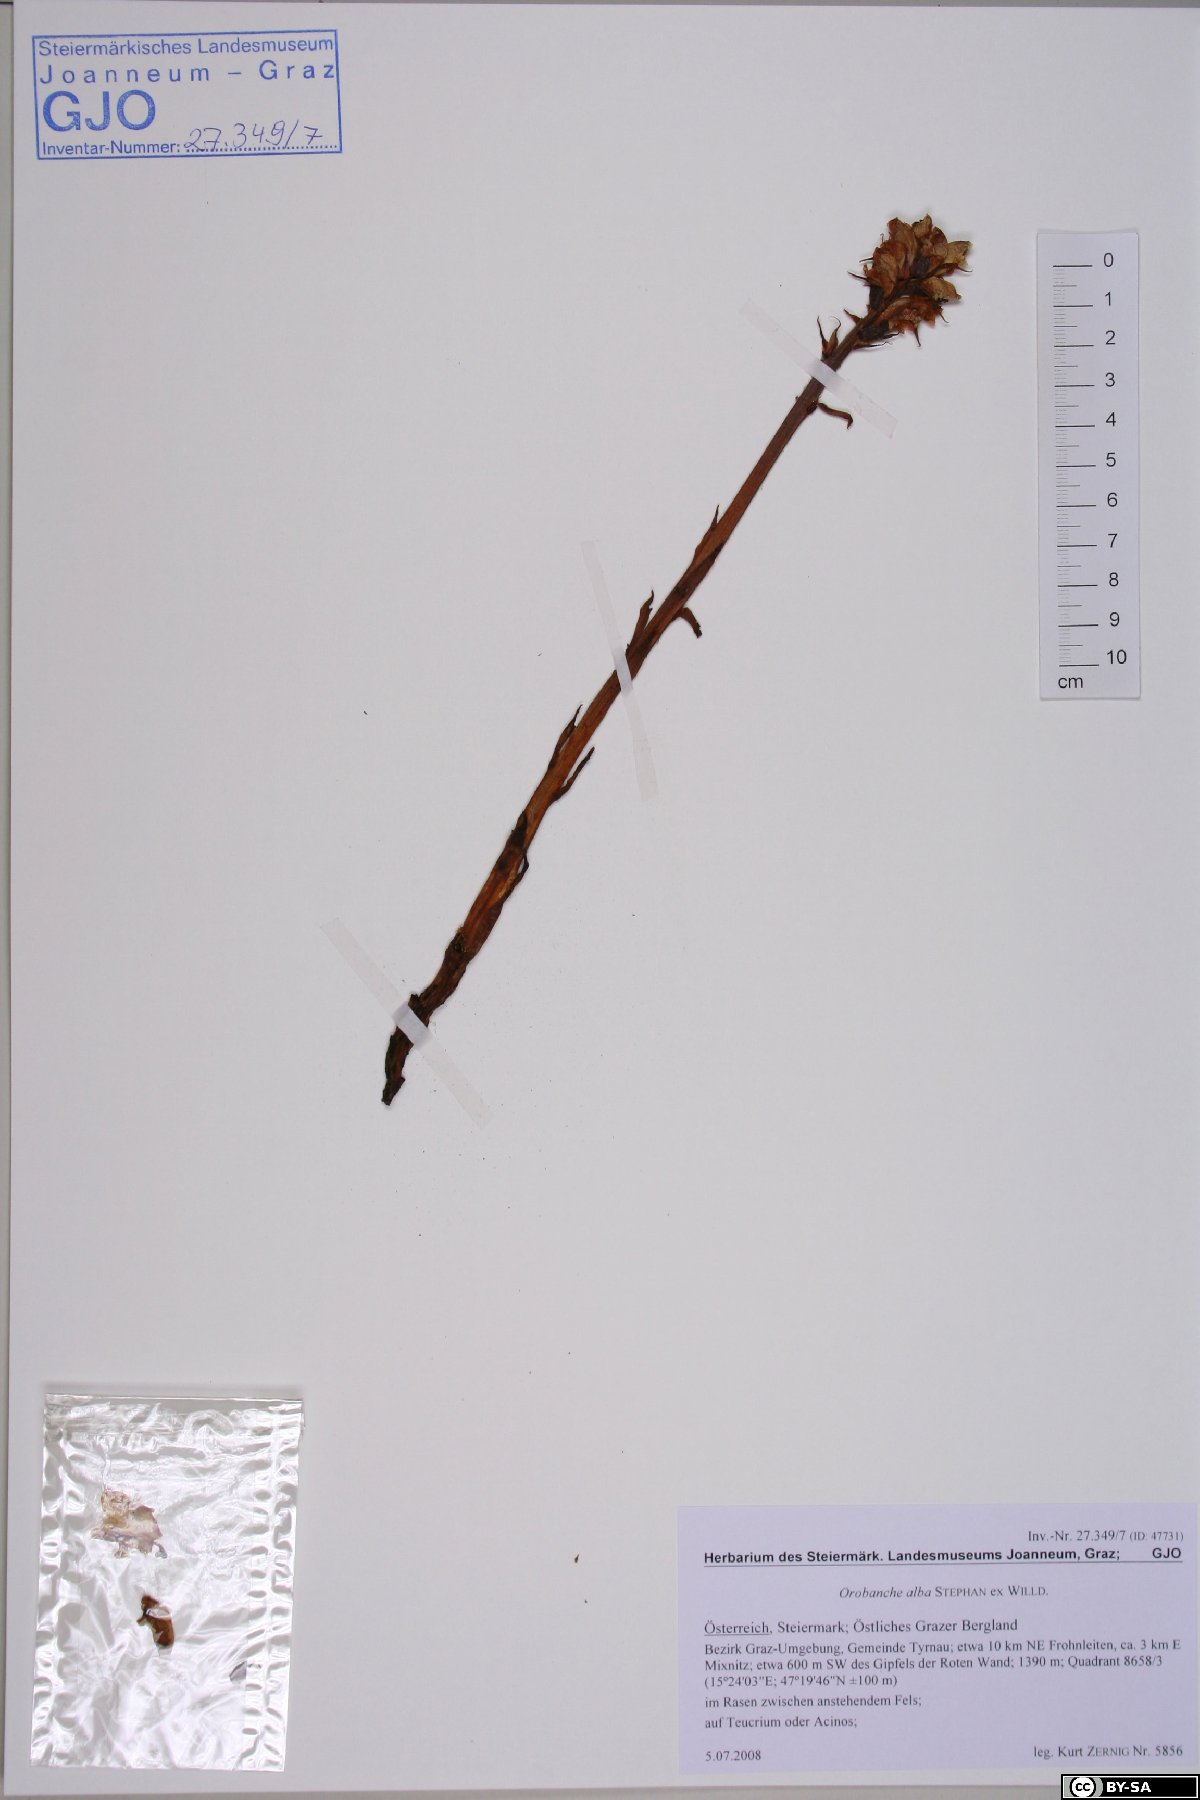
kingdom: Plantae
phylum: Tracheophyta
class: Magnoliopsida
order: Lamiales
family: Orobanchaceae
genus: Orobanche
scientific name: Orobanche alba
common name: Thyme broomrape
